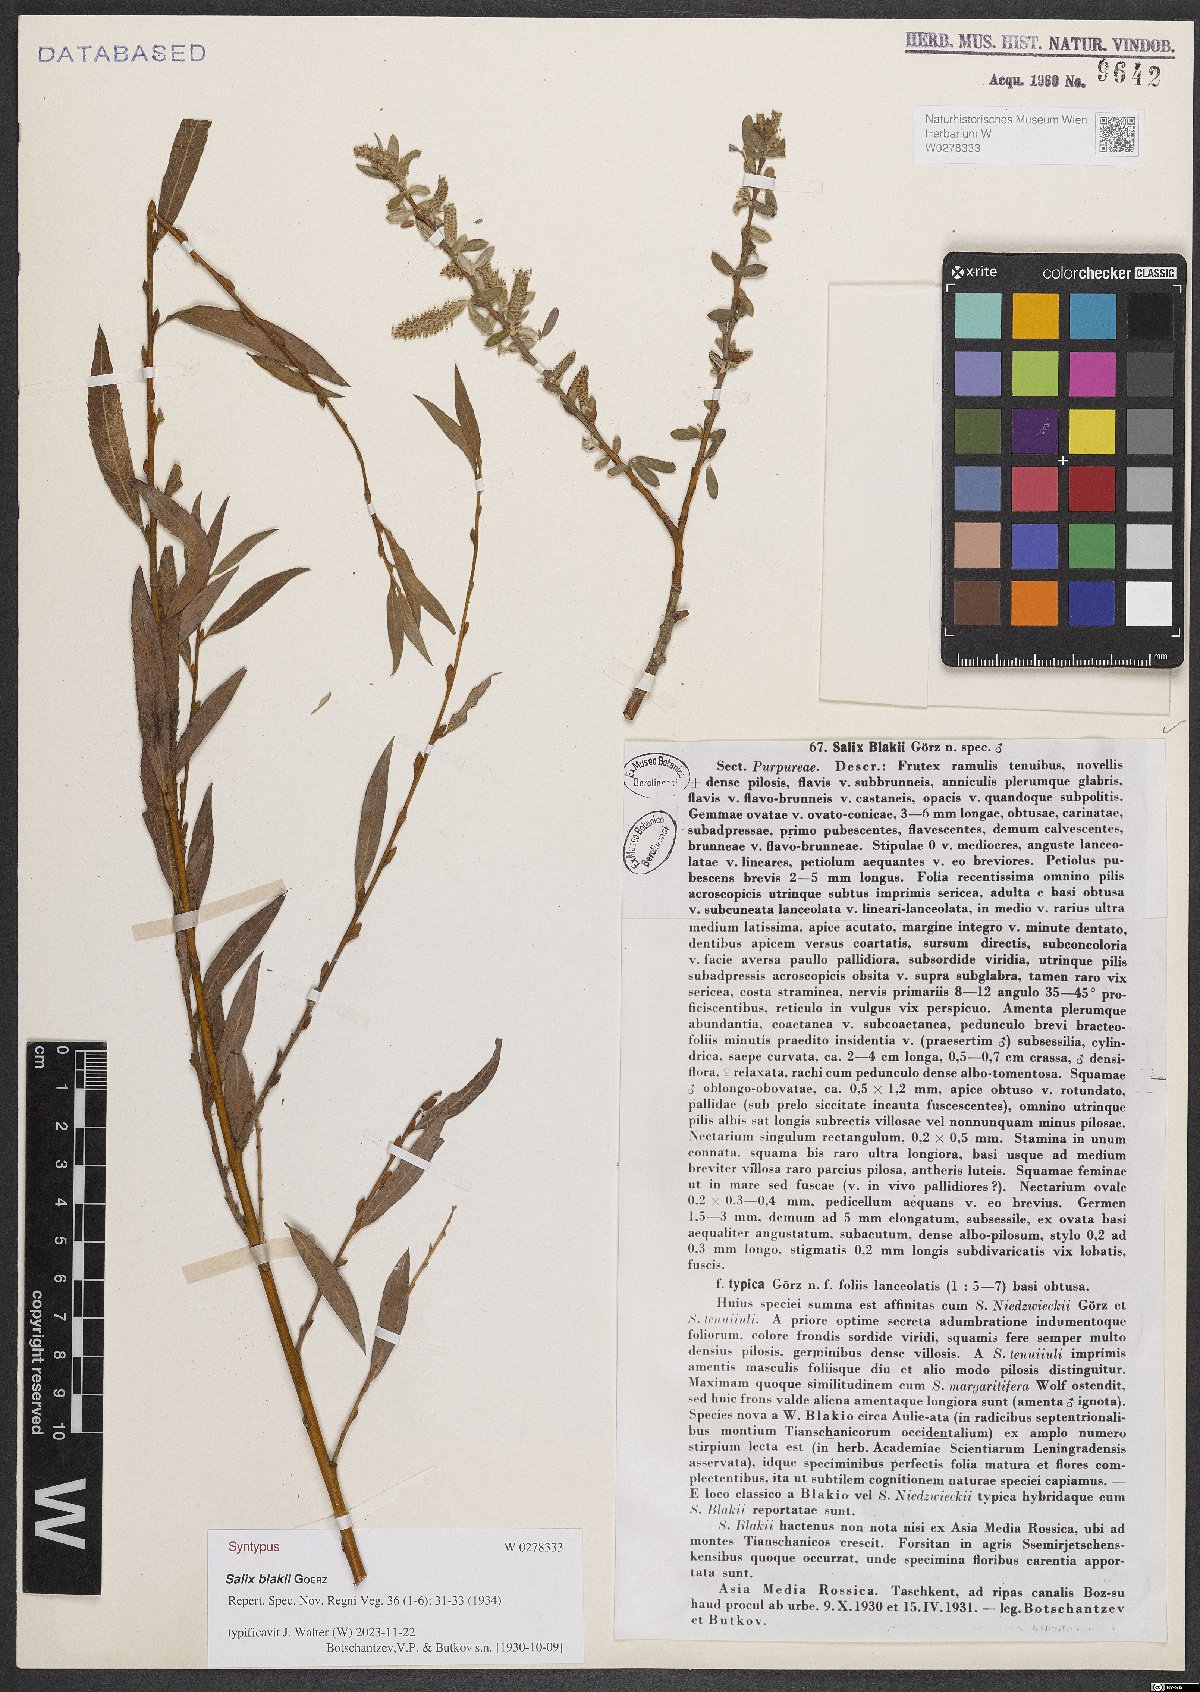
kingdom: Plantae
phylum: Tracheophyta
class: Magnoliopsida
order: Malpighiales
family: Salicaceae
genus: Salix
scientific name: Salix blakii
